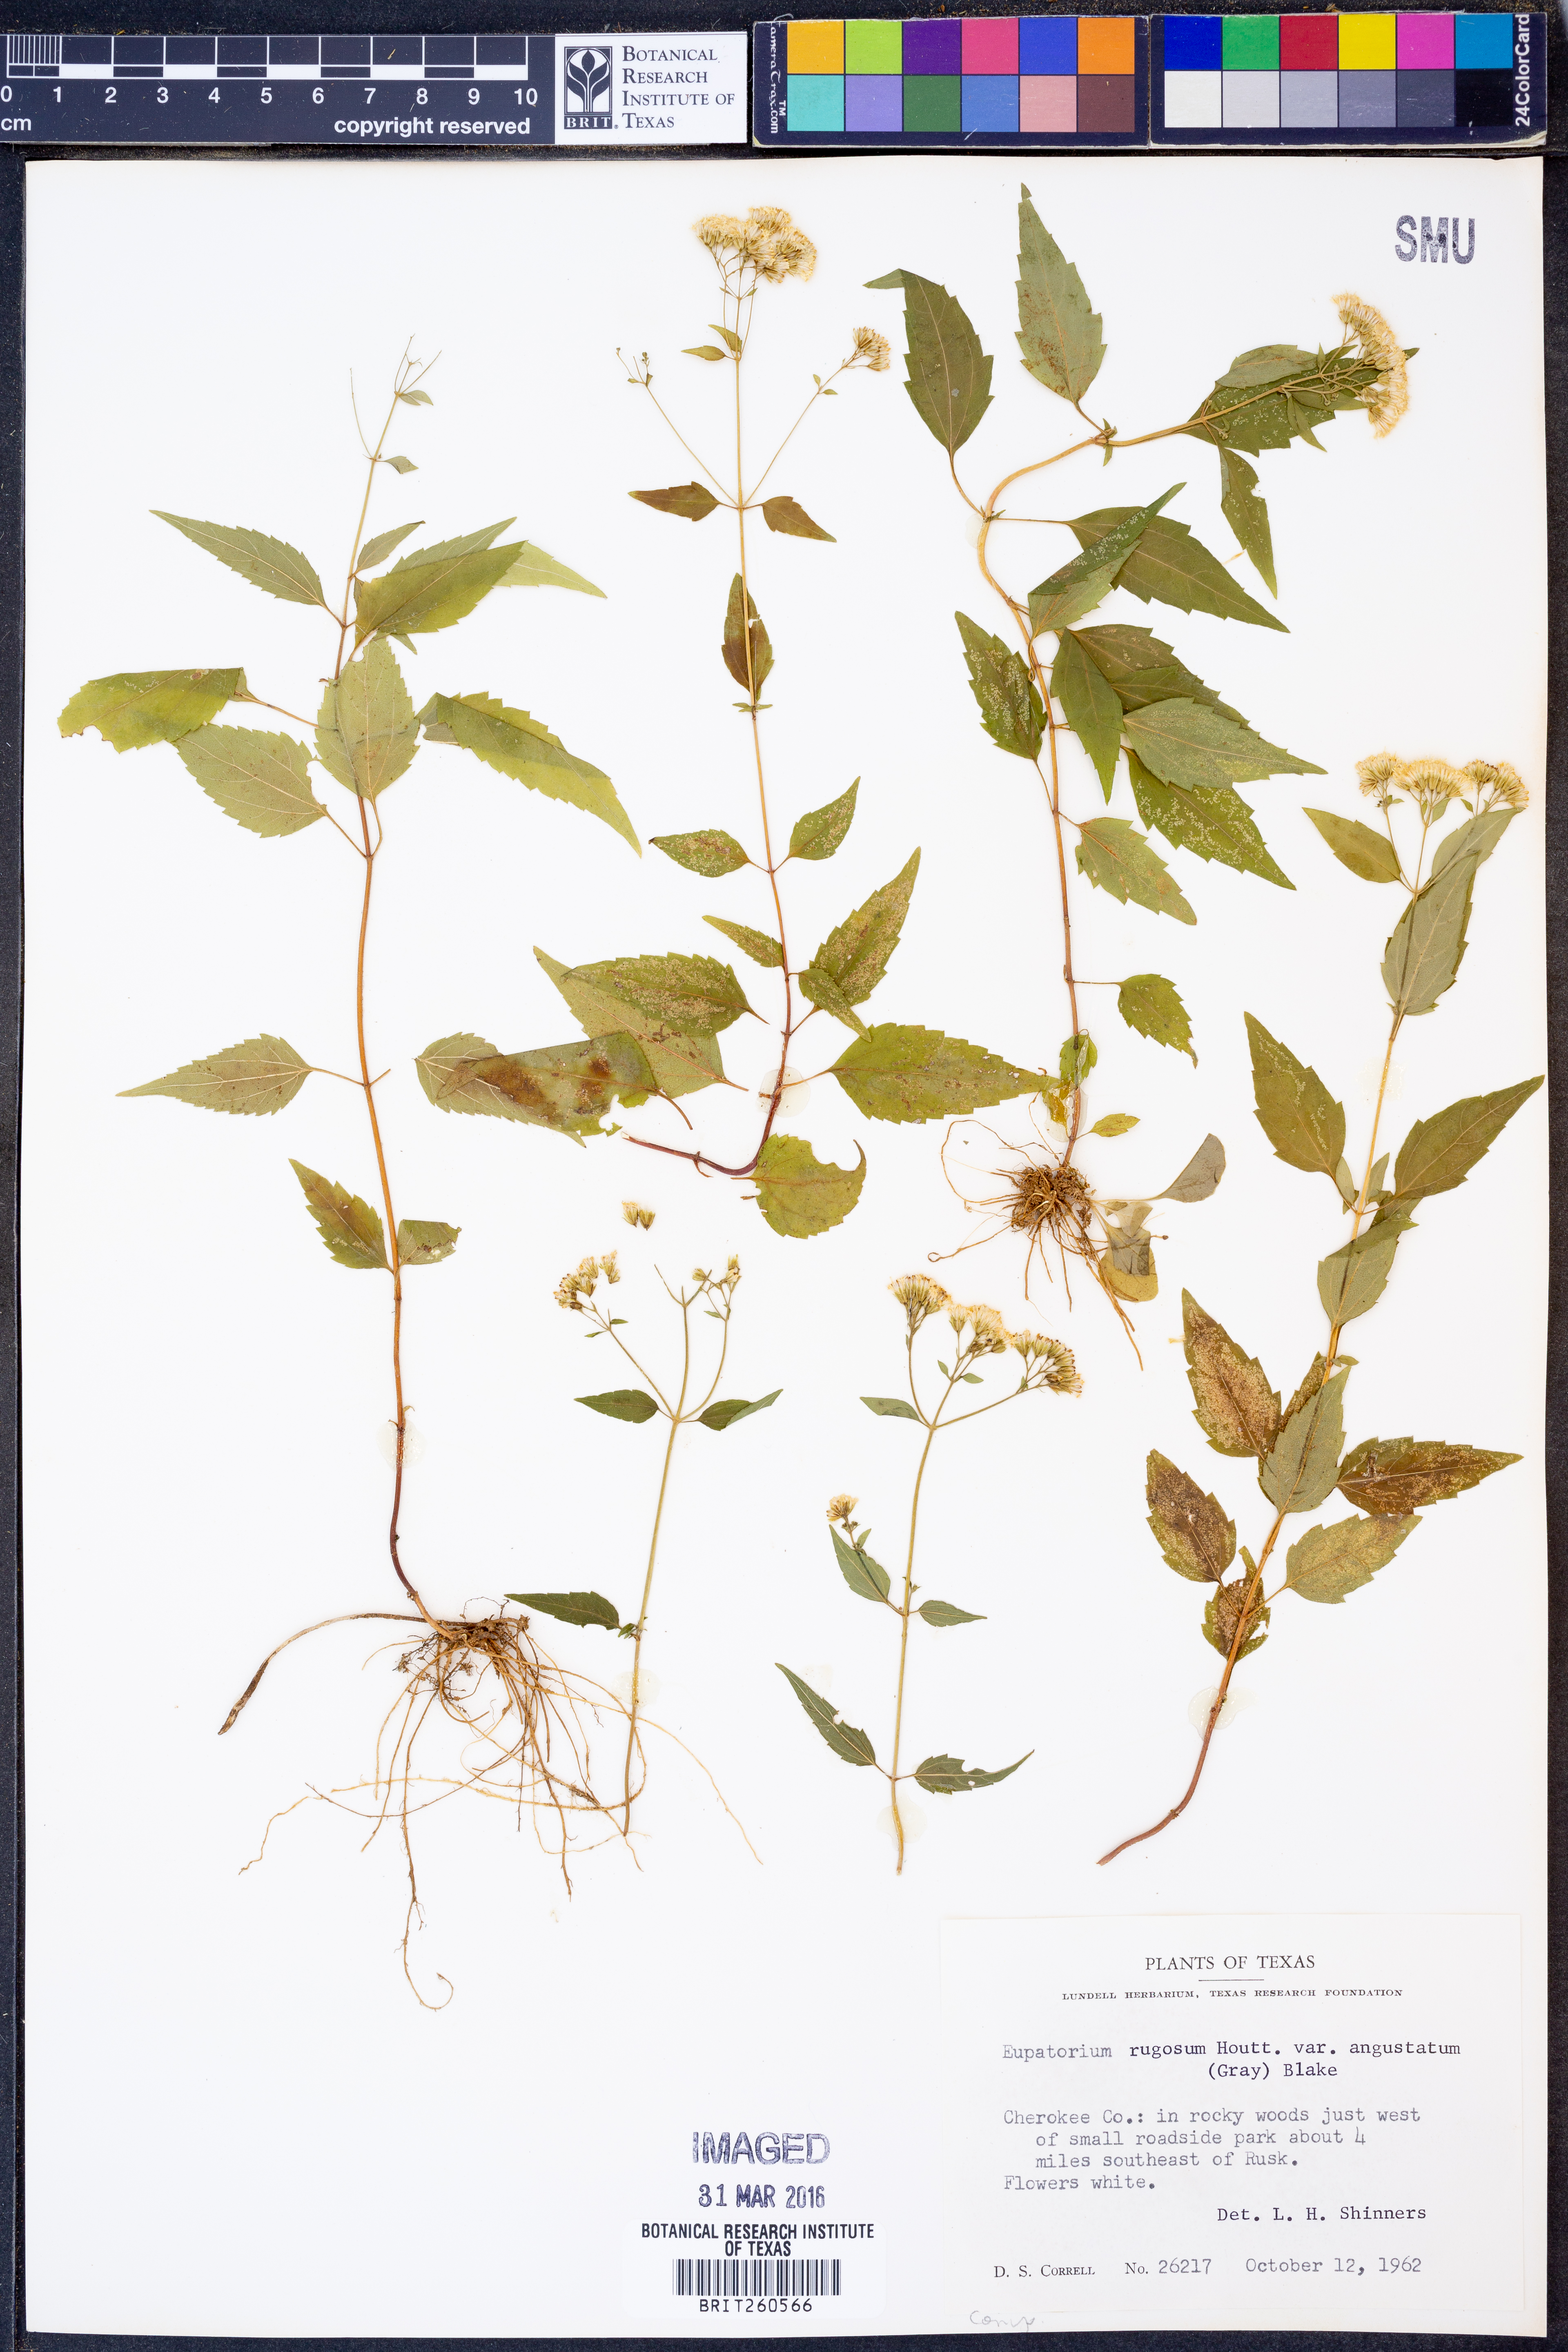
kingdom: Plantae
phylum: Tracheophyta
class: Magnoliopsida
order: Asterales
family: Asteraceae
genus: Ageratina
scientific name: Ageratina altissima
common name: White snakeroot
